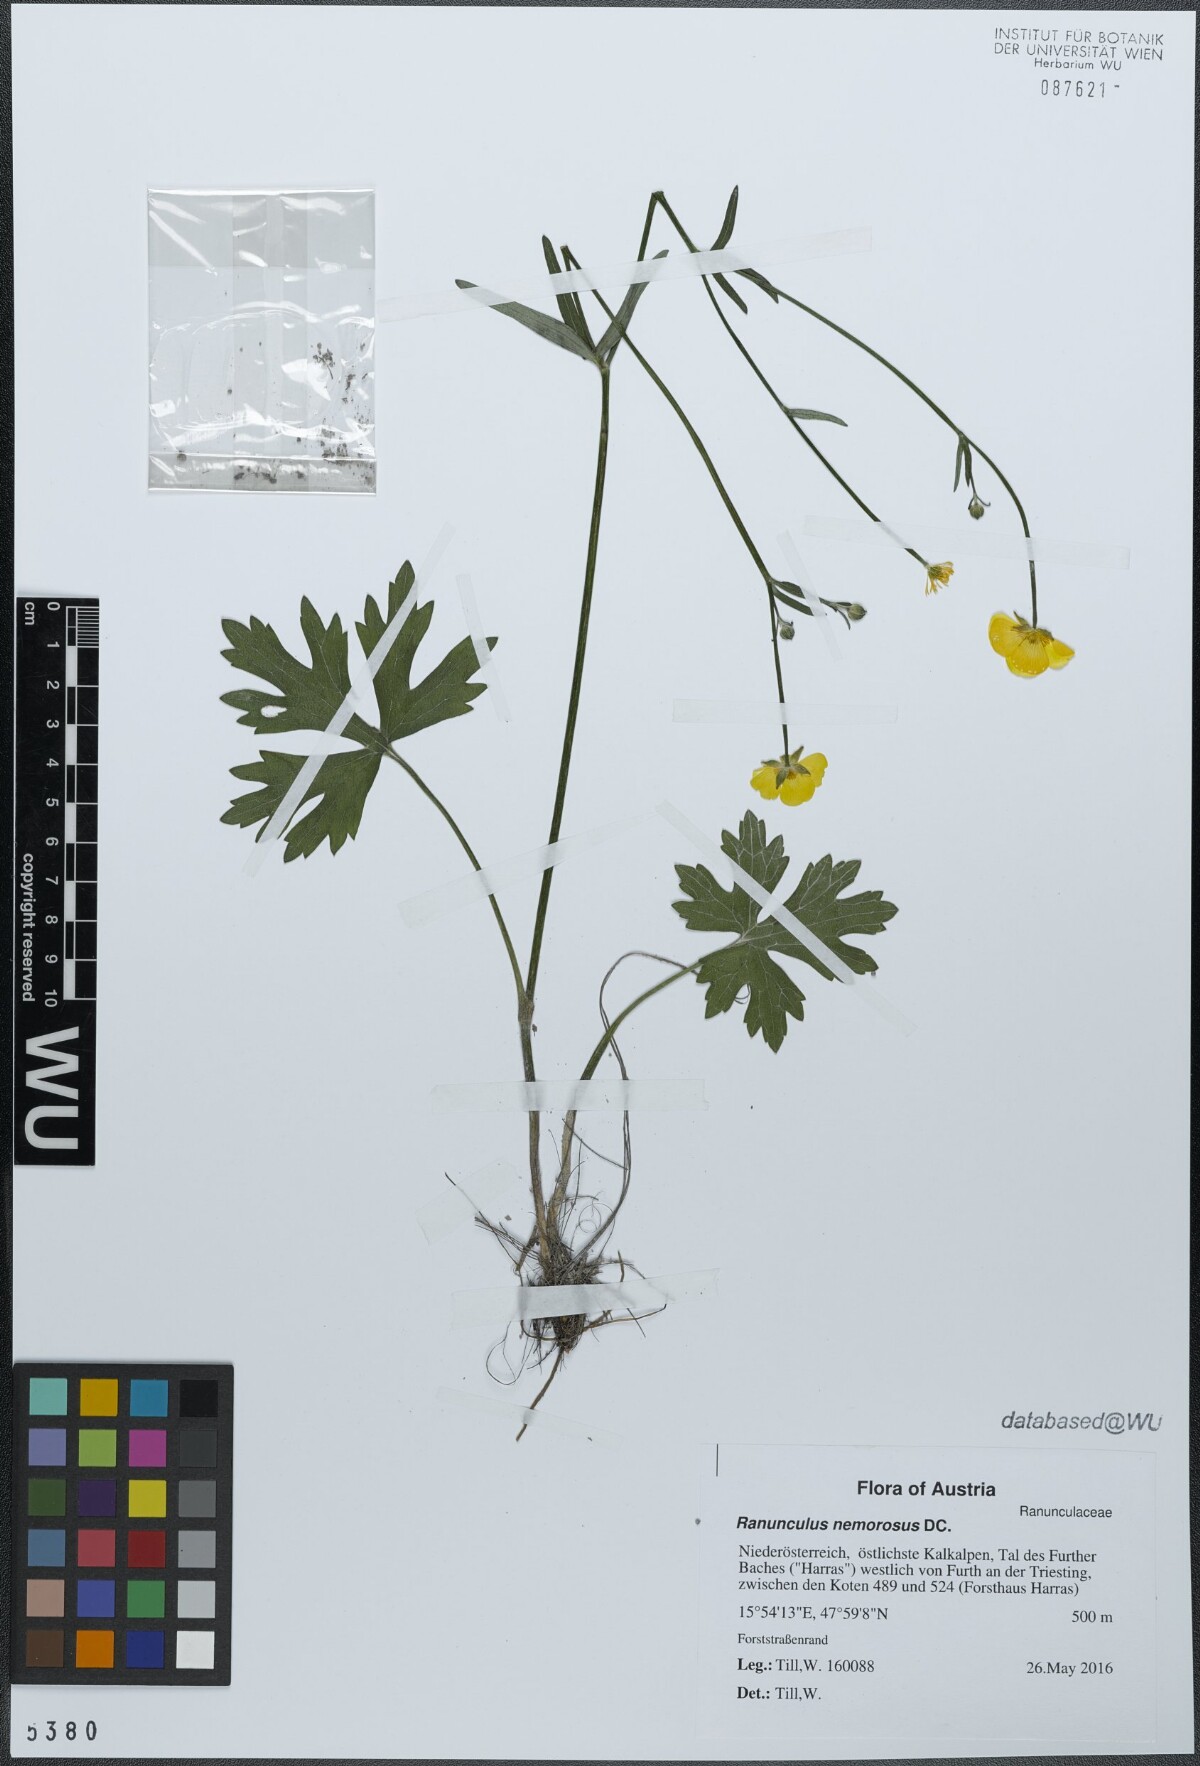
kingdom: Plantae
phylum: Tracheophyta
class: Magnoliopsida
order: Ranunculales
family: Ranunculaceae
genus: Ranunculus
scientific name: Ranunculus polyanthemos
